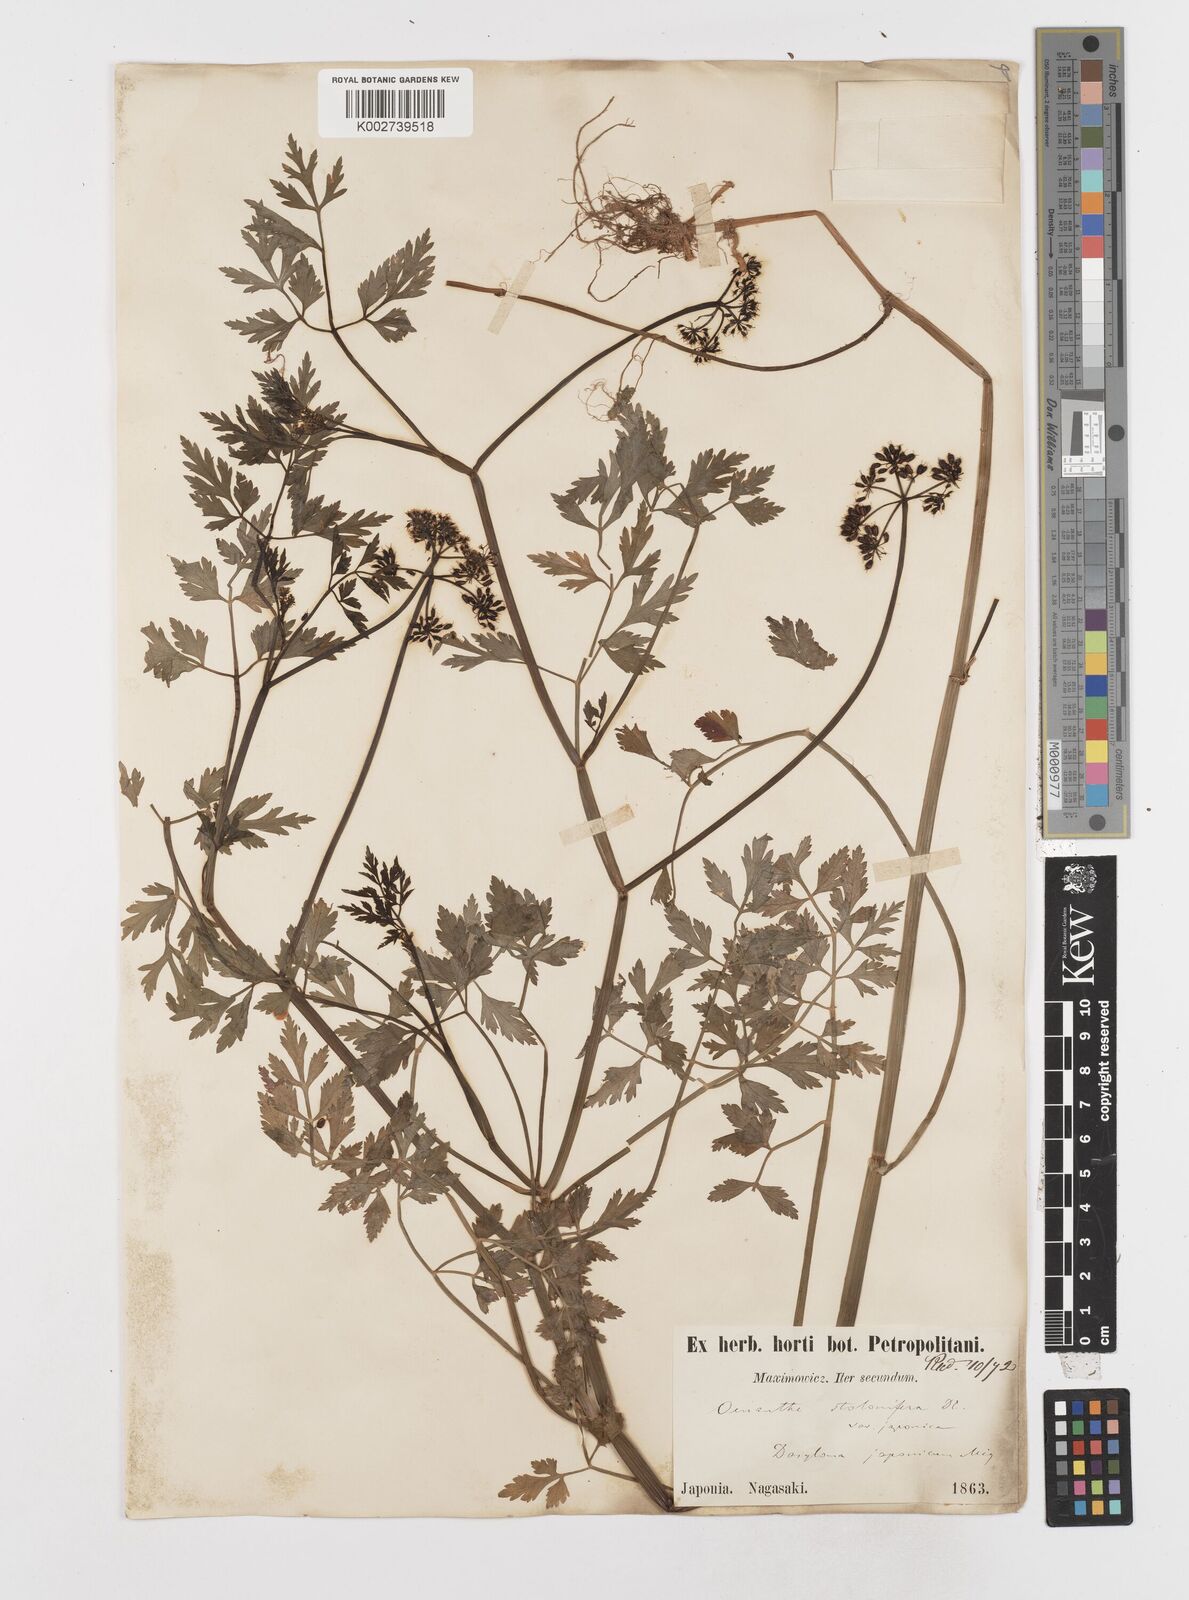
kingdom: Plantae
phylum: Tracheophyta
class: Magnoliopsida
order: Apiales
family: Apiaceae
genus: Oenanthe
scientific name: Oenanthe javanica
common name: Java water-dropwort
